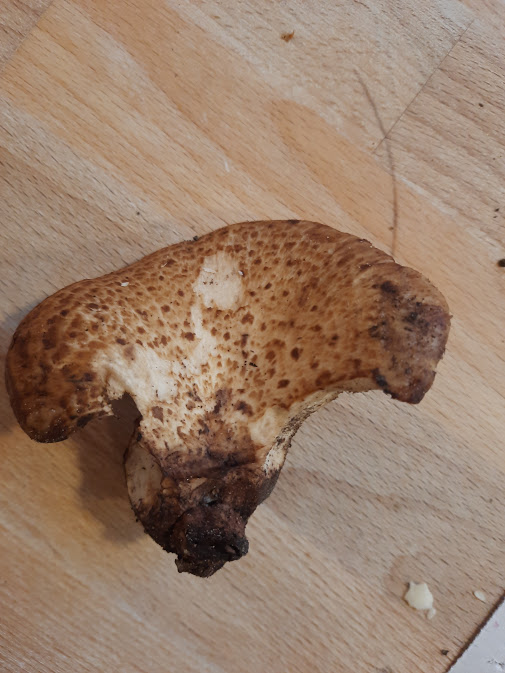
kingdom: Fungi
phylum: Basidiomycota
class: Agaricomycetes
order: Polyporales
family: Polyporaceae
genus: Cerioporus
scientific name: Cerioporus squamosus
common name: skællet stilkporesvamp
